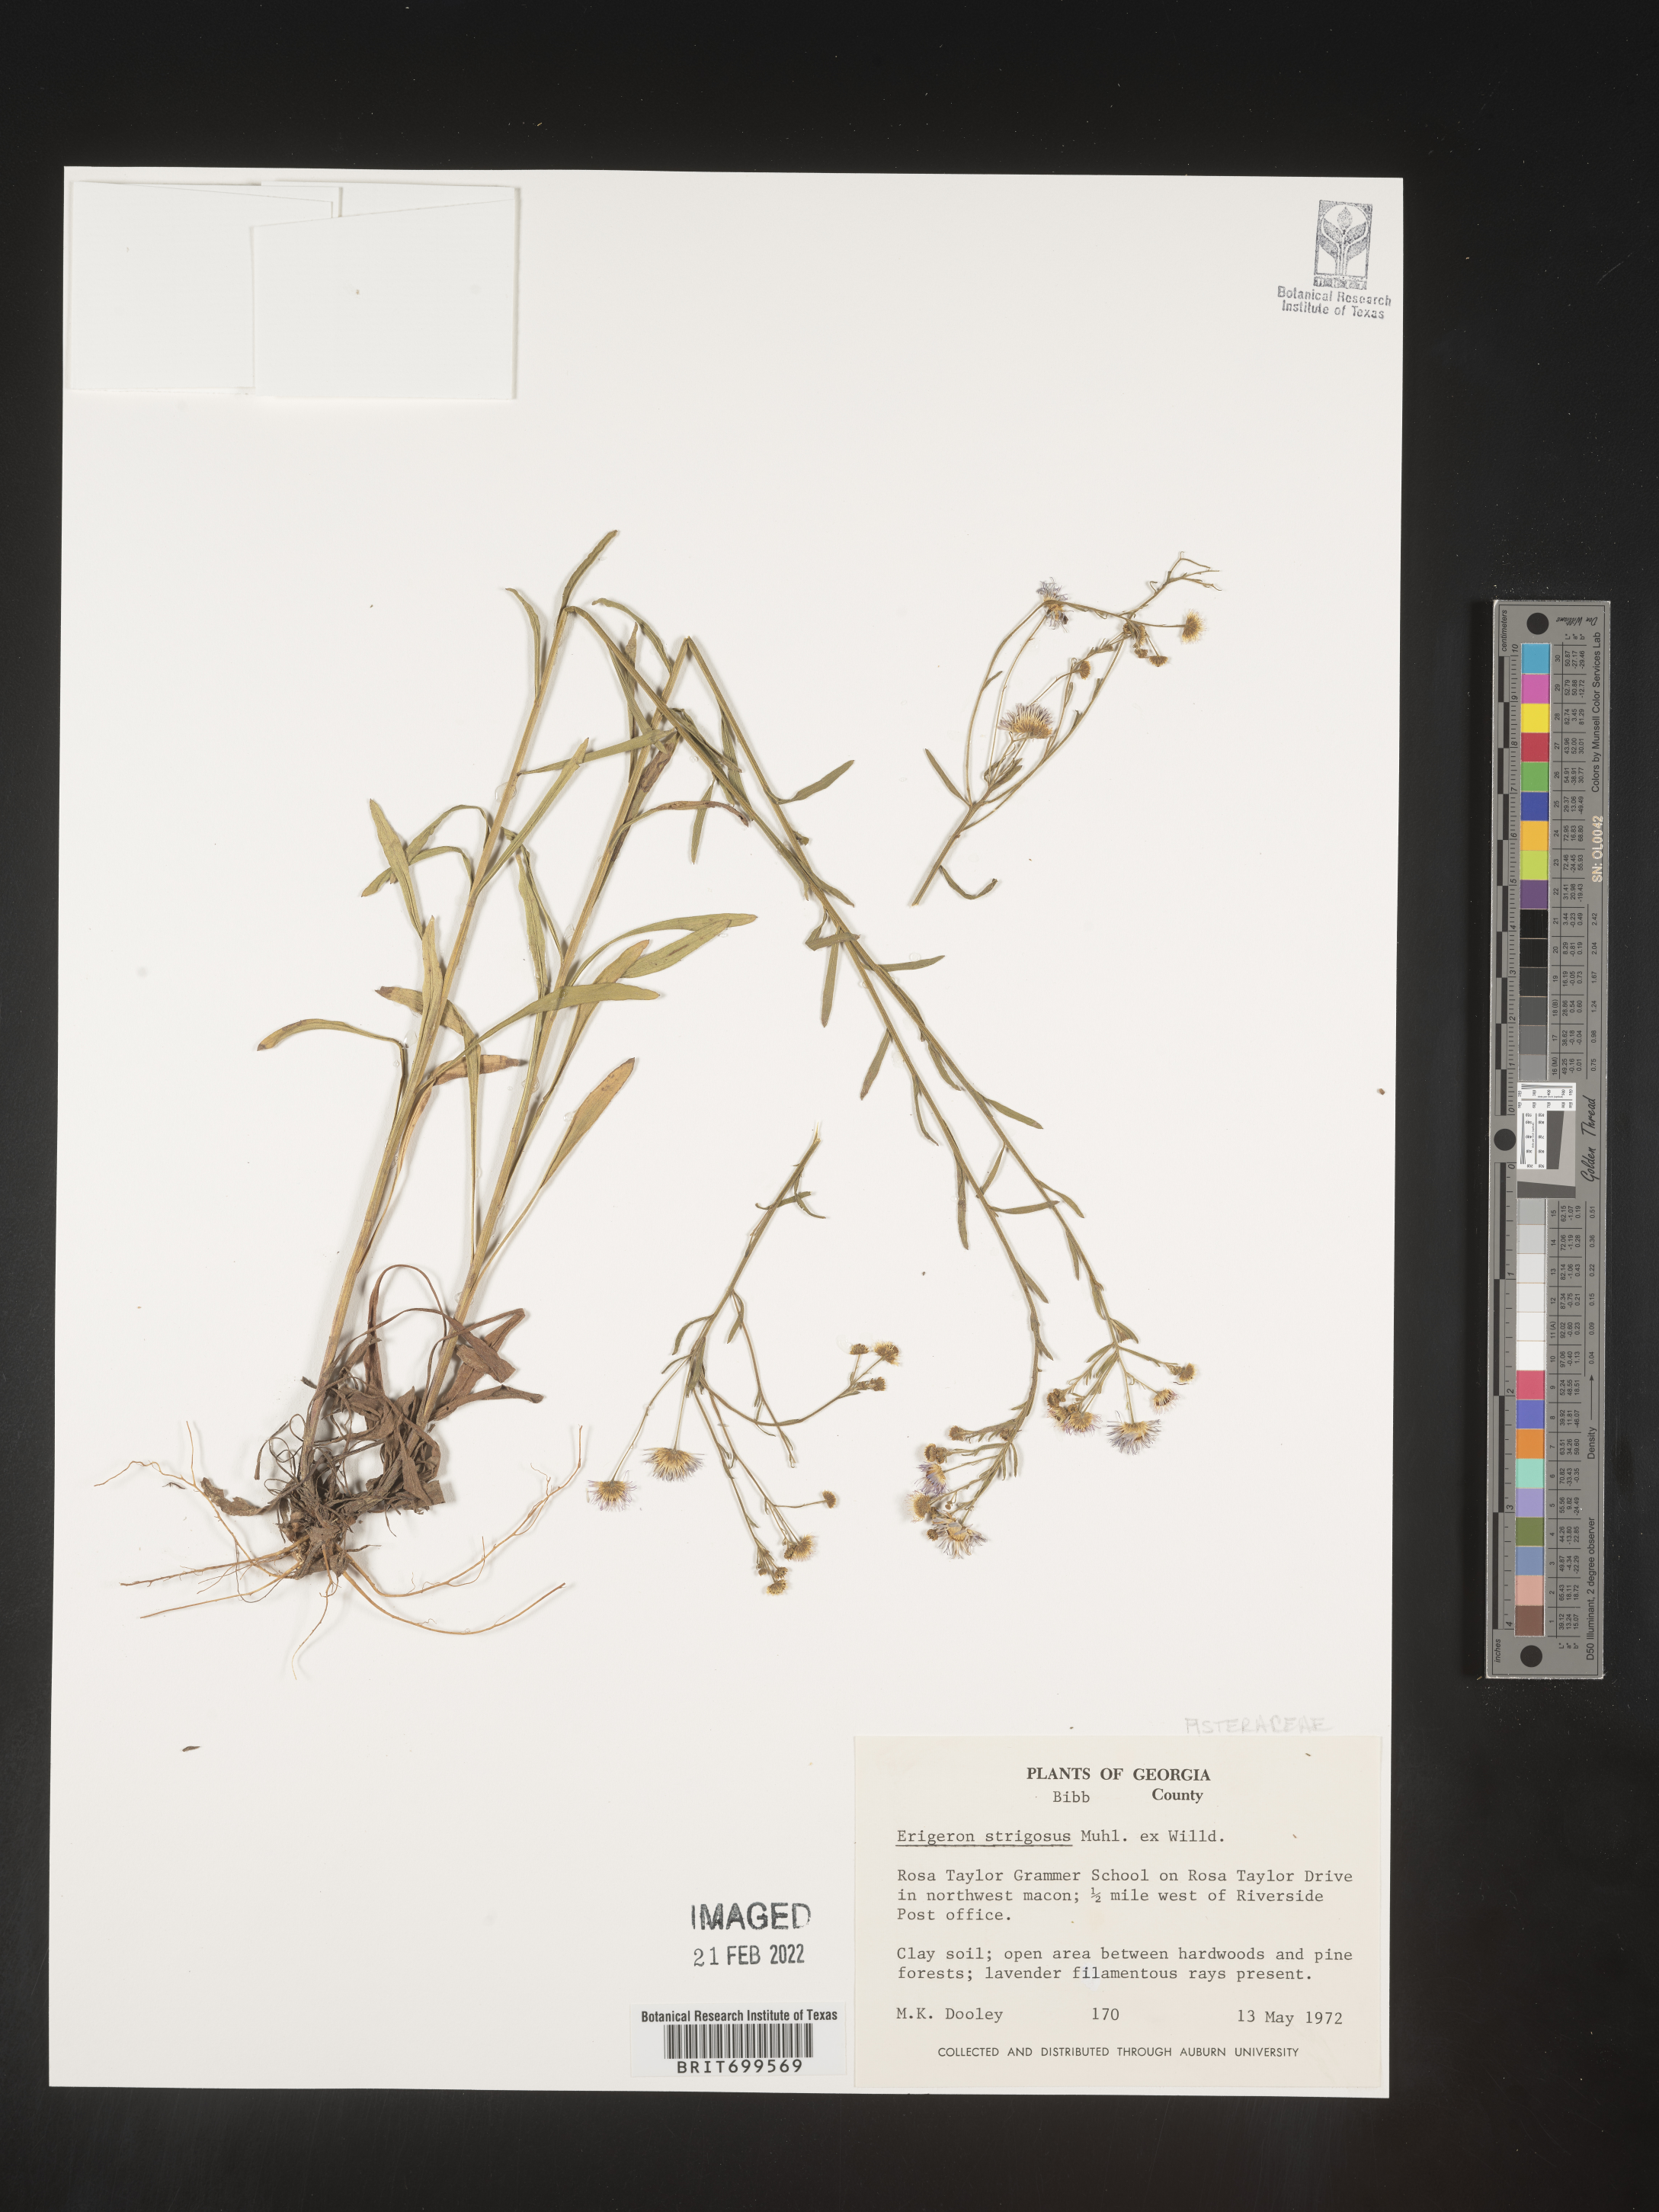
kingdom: Plantae
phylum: Tracheophyta
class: Magnoliopsida
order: Asterales
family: Asteraceae
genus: Erigeron
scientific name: Erigeron strigosus
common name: Common eastern fleabane
